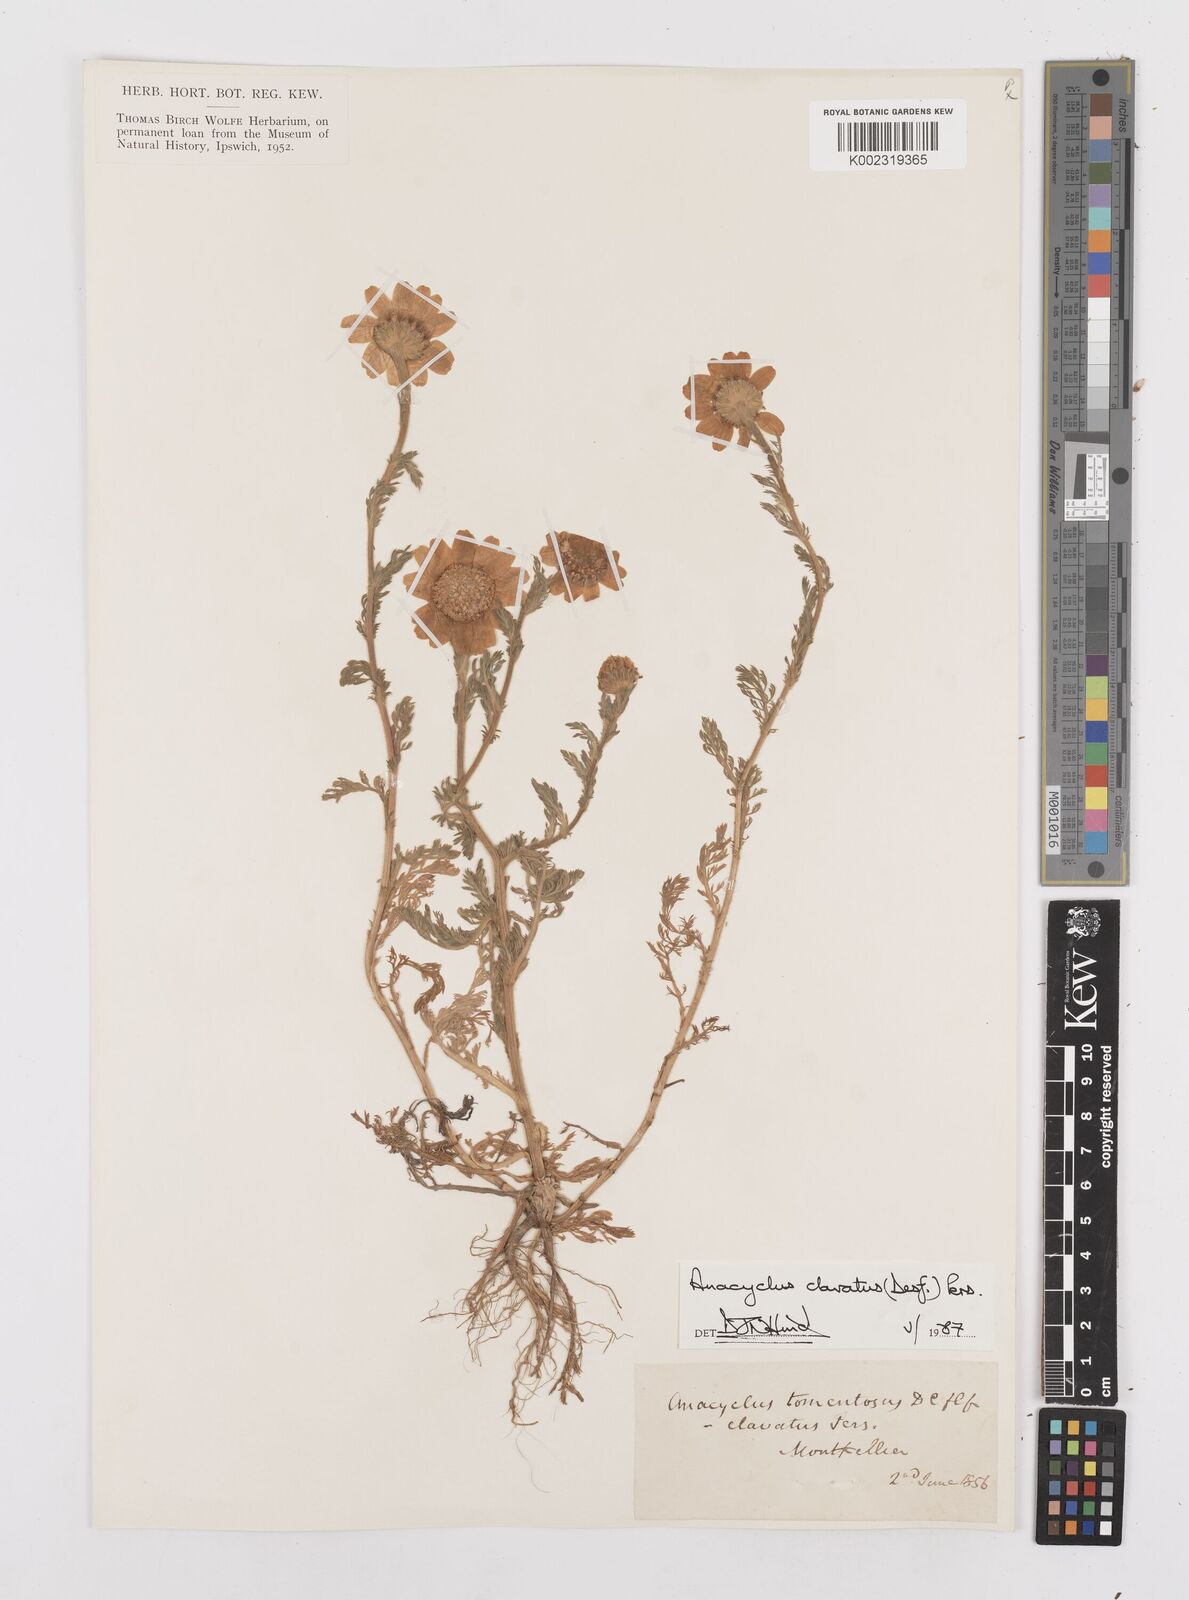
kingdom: Plantae
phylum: Tracheophyta
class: Magnoliopsida
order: Asterales
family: Asteraceae
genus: Anacyclus
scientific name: Anacyclus clavatus
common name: Whitebuttons
